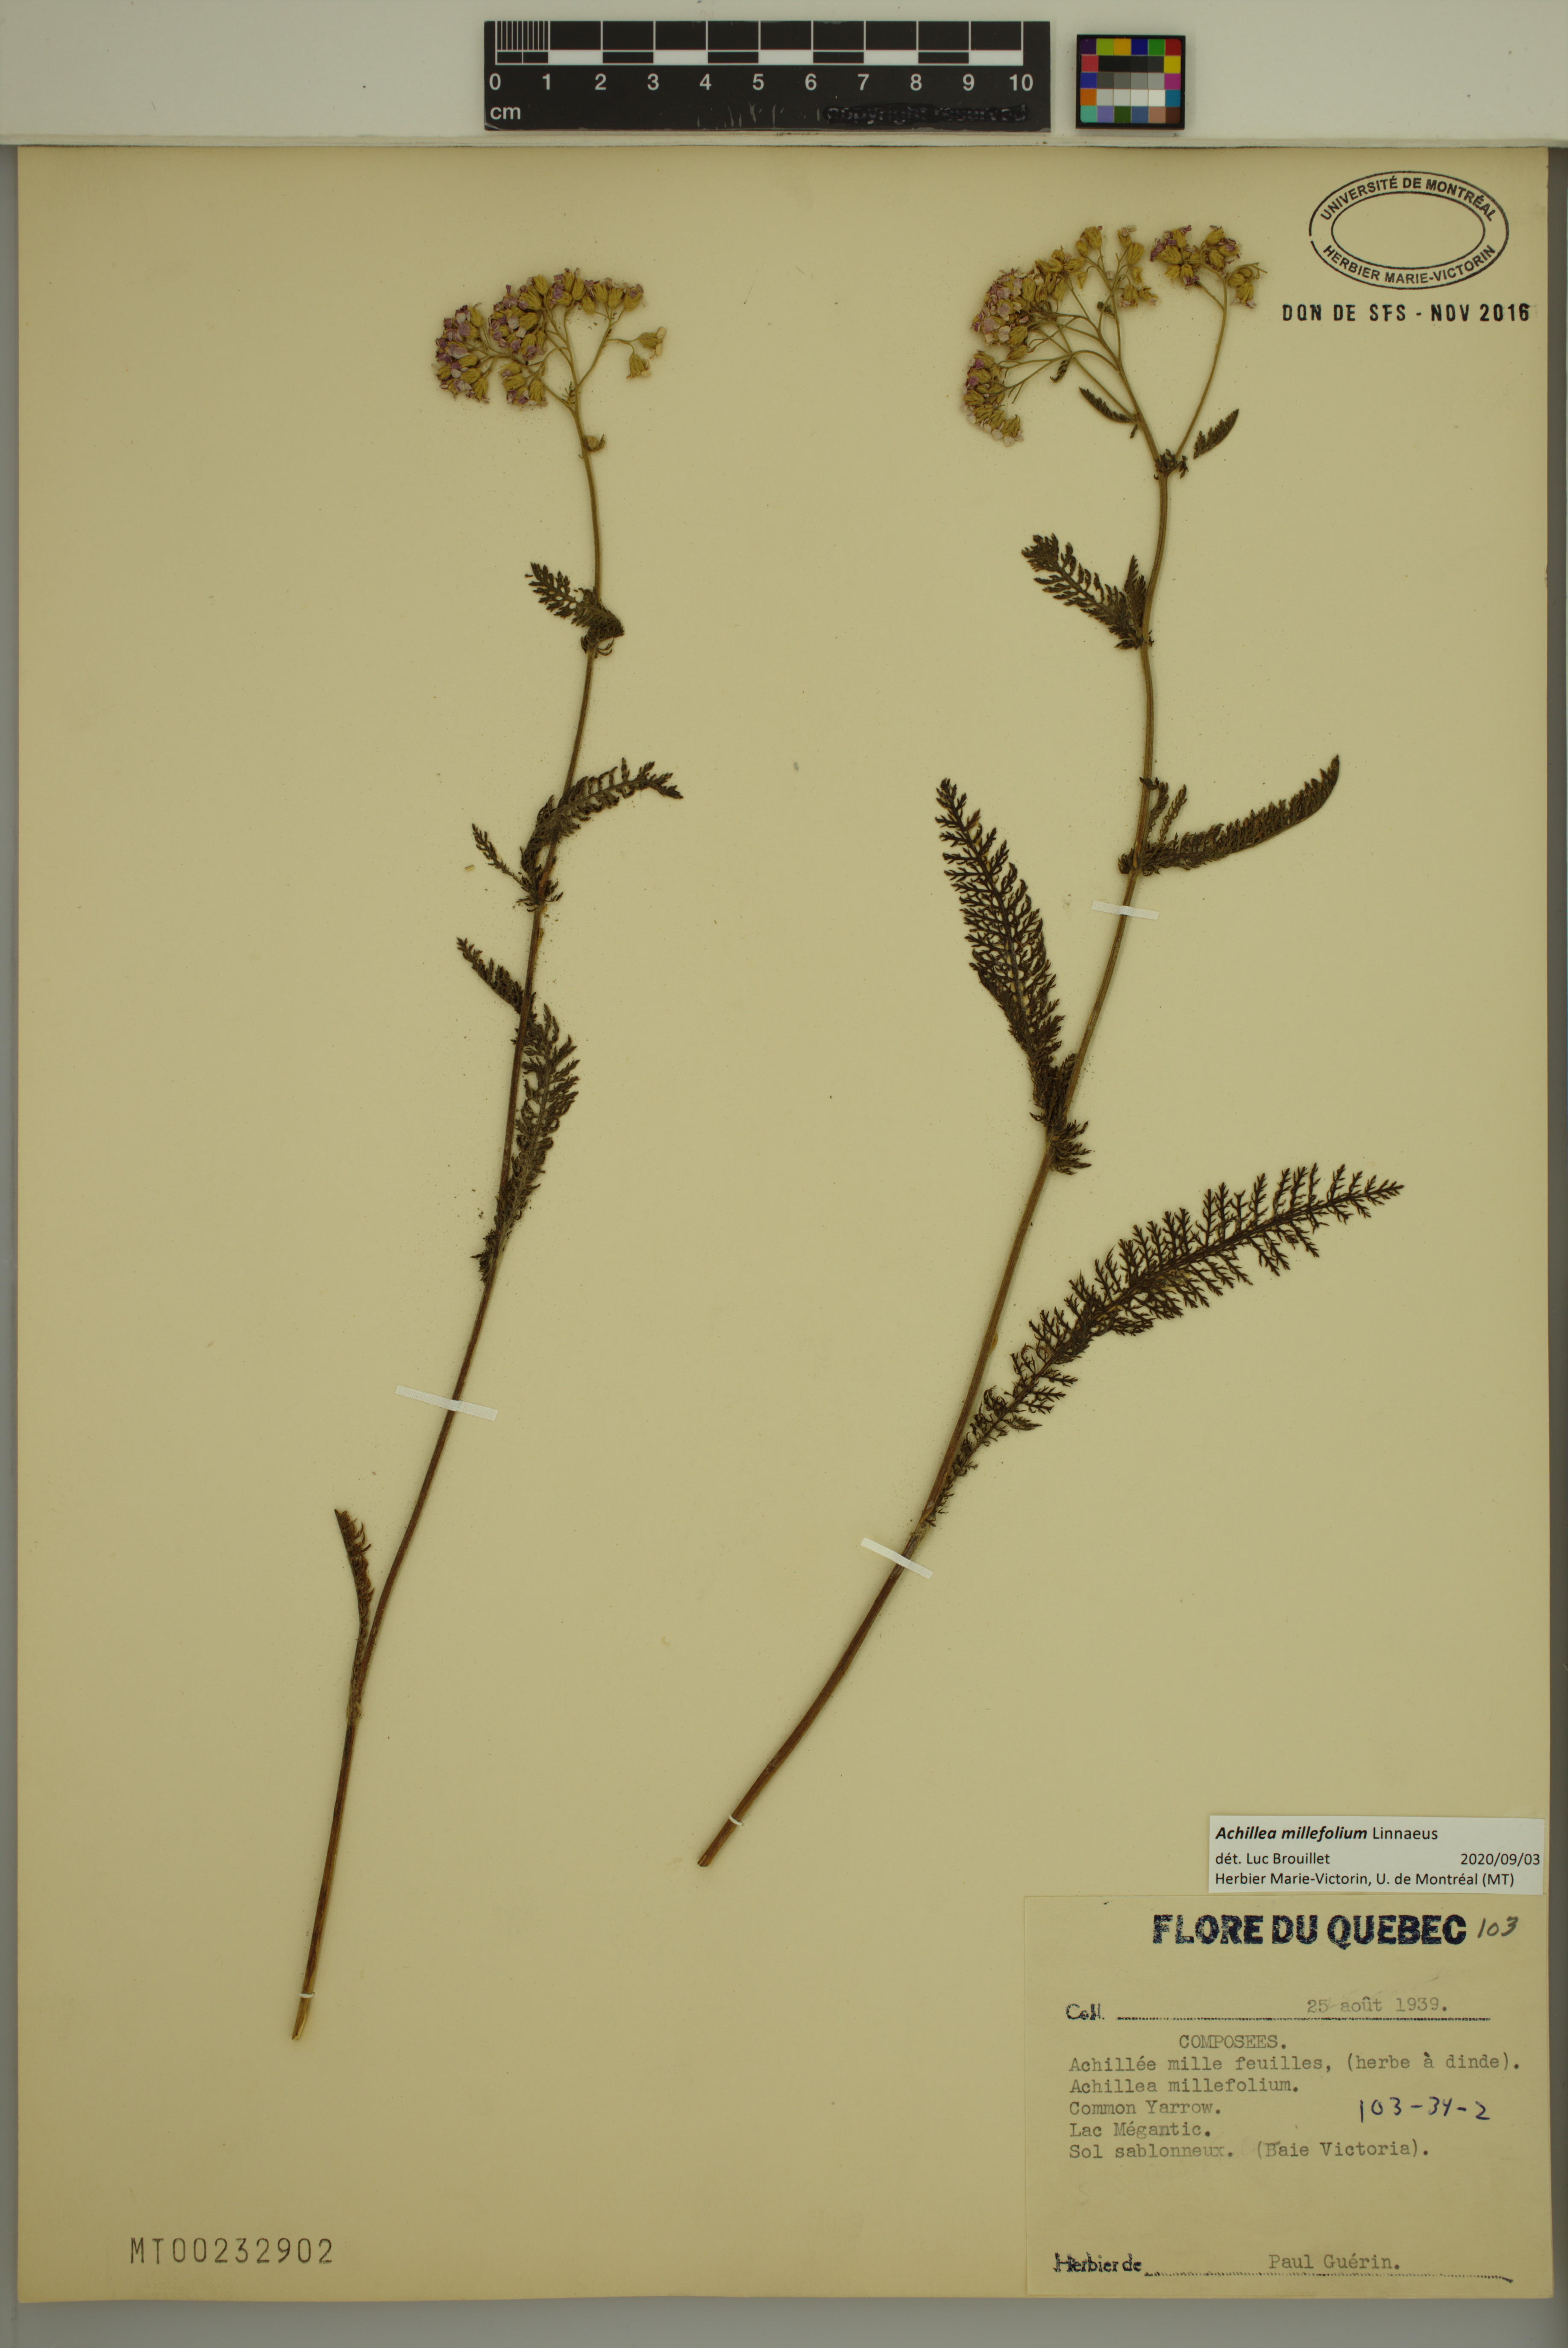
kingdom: Plantae
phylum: Tracheophyta
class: Magnoliopsida
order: Asterales
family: Asteraceae
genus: Achillea
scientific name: Achillea millefolium
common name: Yarrow
